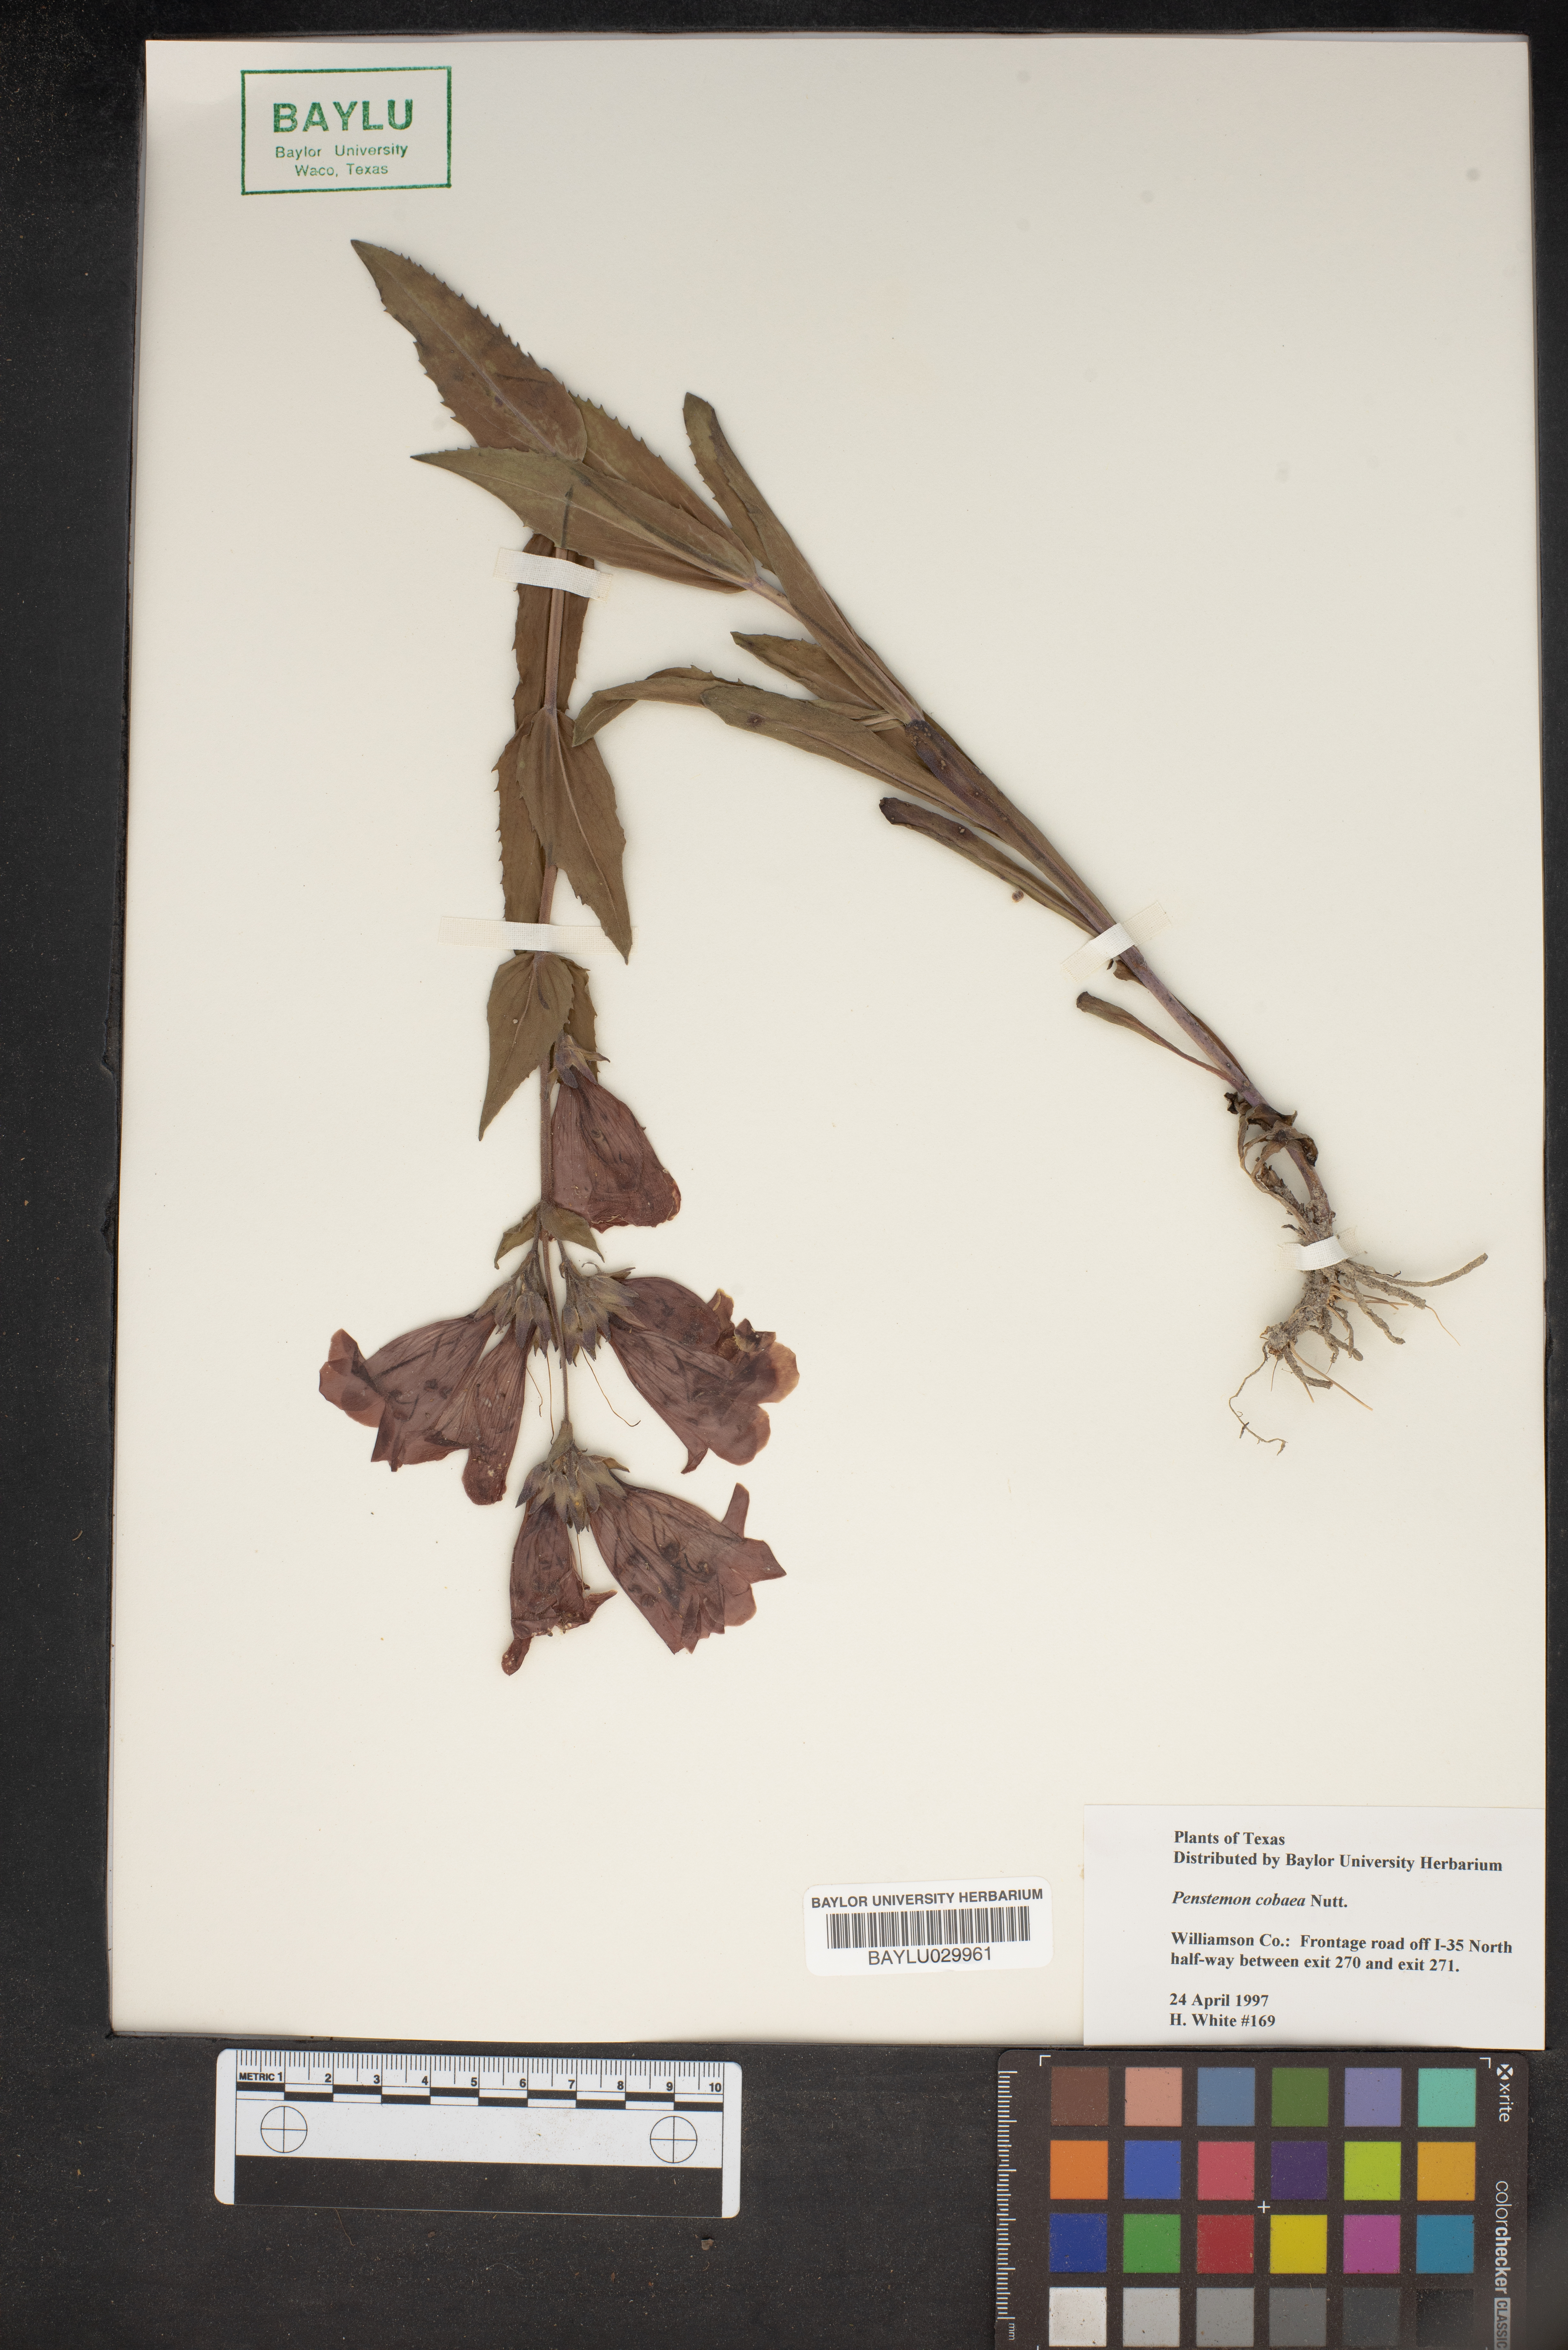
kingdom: Plantae
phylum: Tracheophyta
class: Magnoliopsida
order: Lamiales
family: Plantaginaceae
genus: Penstemon
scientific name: Penstemon cobaea
